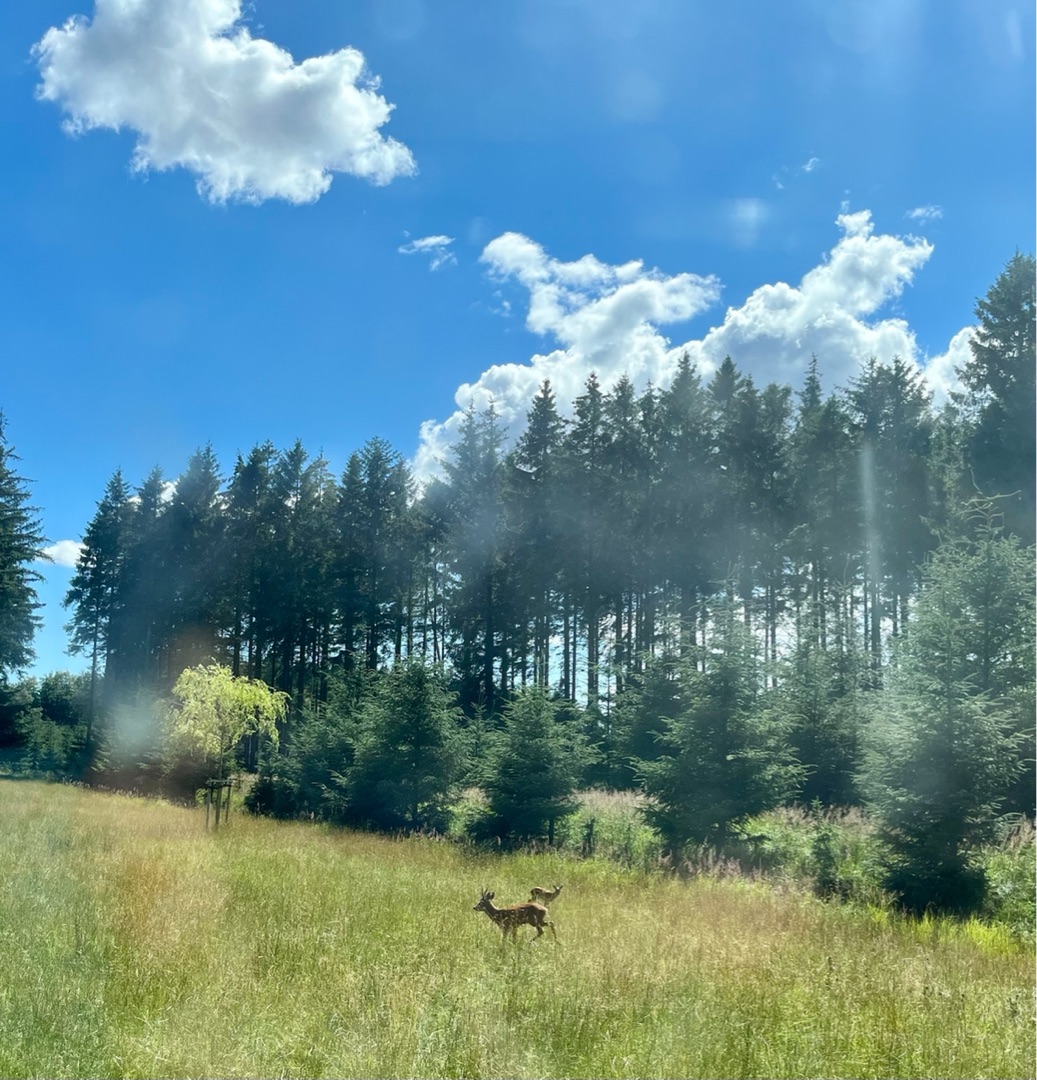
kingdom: Animalia
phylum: Chordata
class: Mammalia
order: Artiodactyla
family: Cervidae
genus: Capreolus
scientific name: Capreolus capreolus
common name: Rådyr
